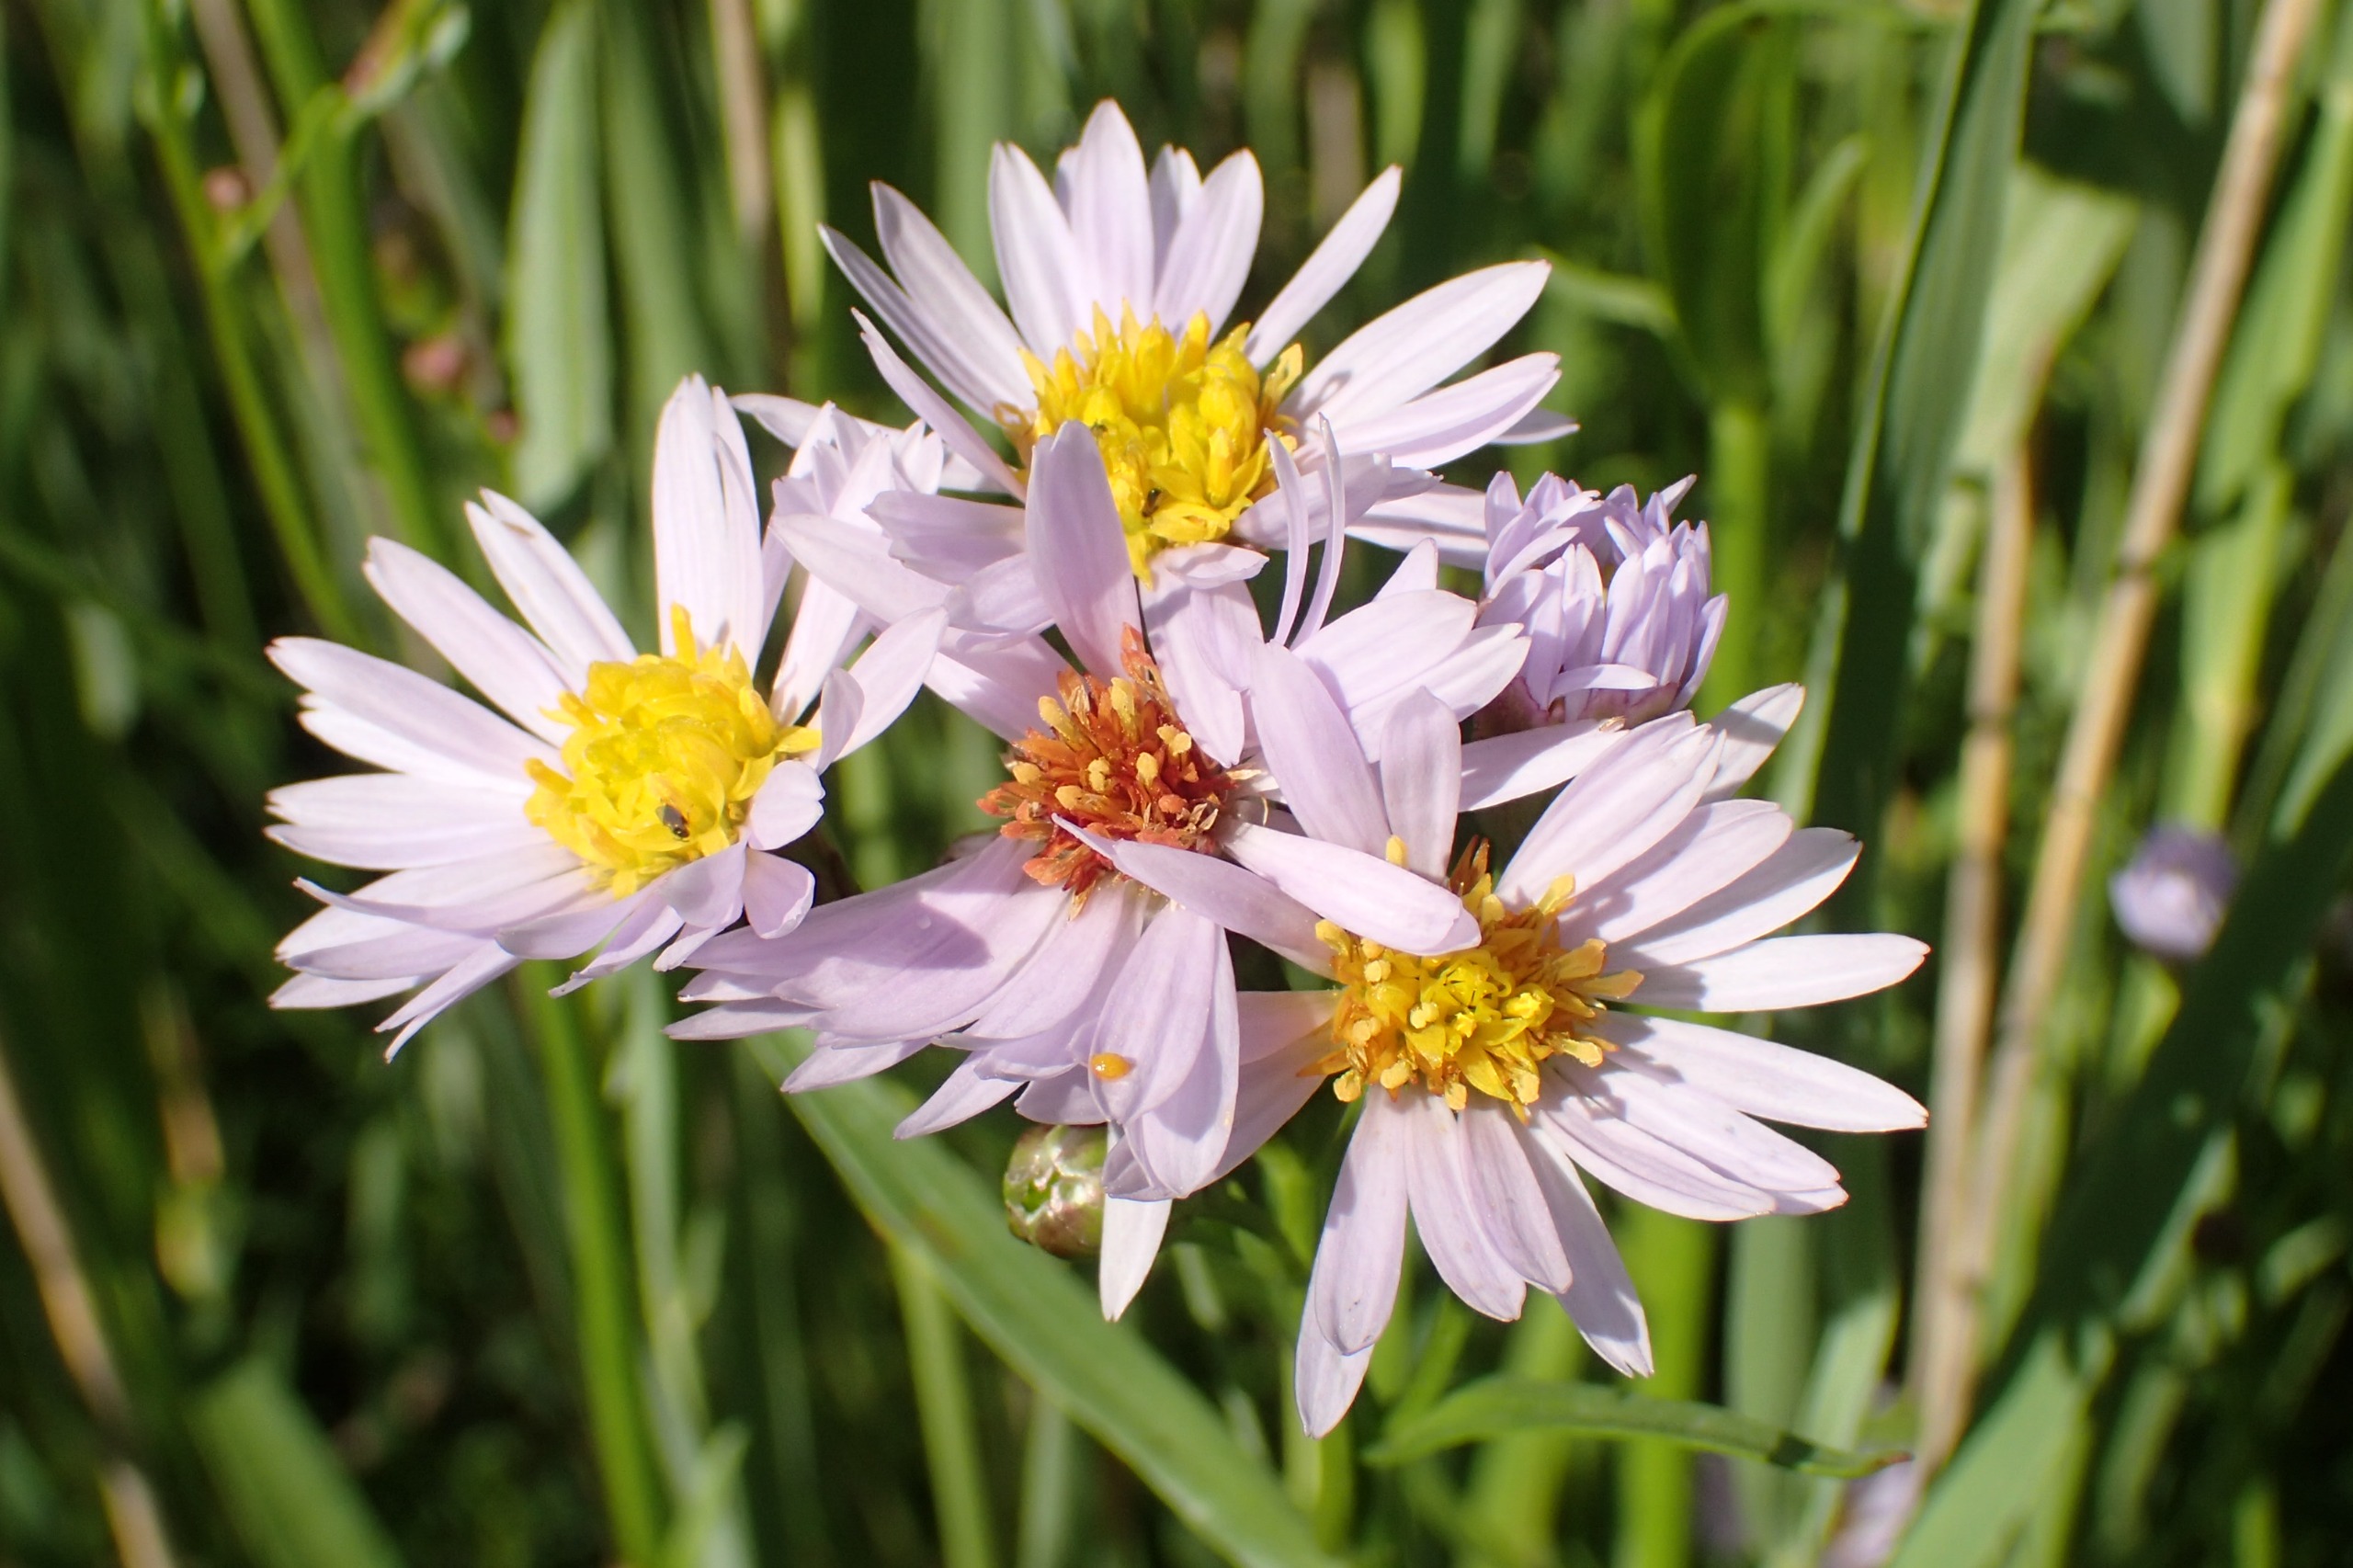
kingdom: Plantae
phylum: Tracheophyta
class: Magnoliopsida
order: Asterales
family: Asteraceae
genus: Tripolium
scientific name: Tripolium pannonicum
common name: Strandasters
